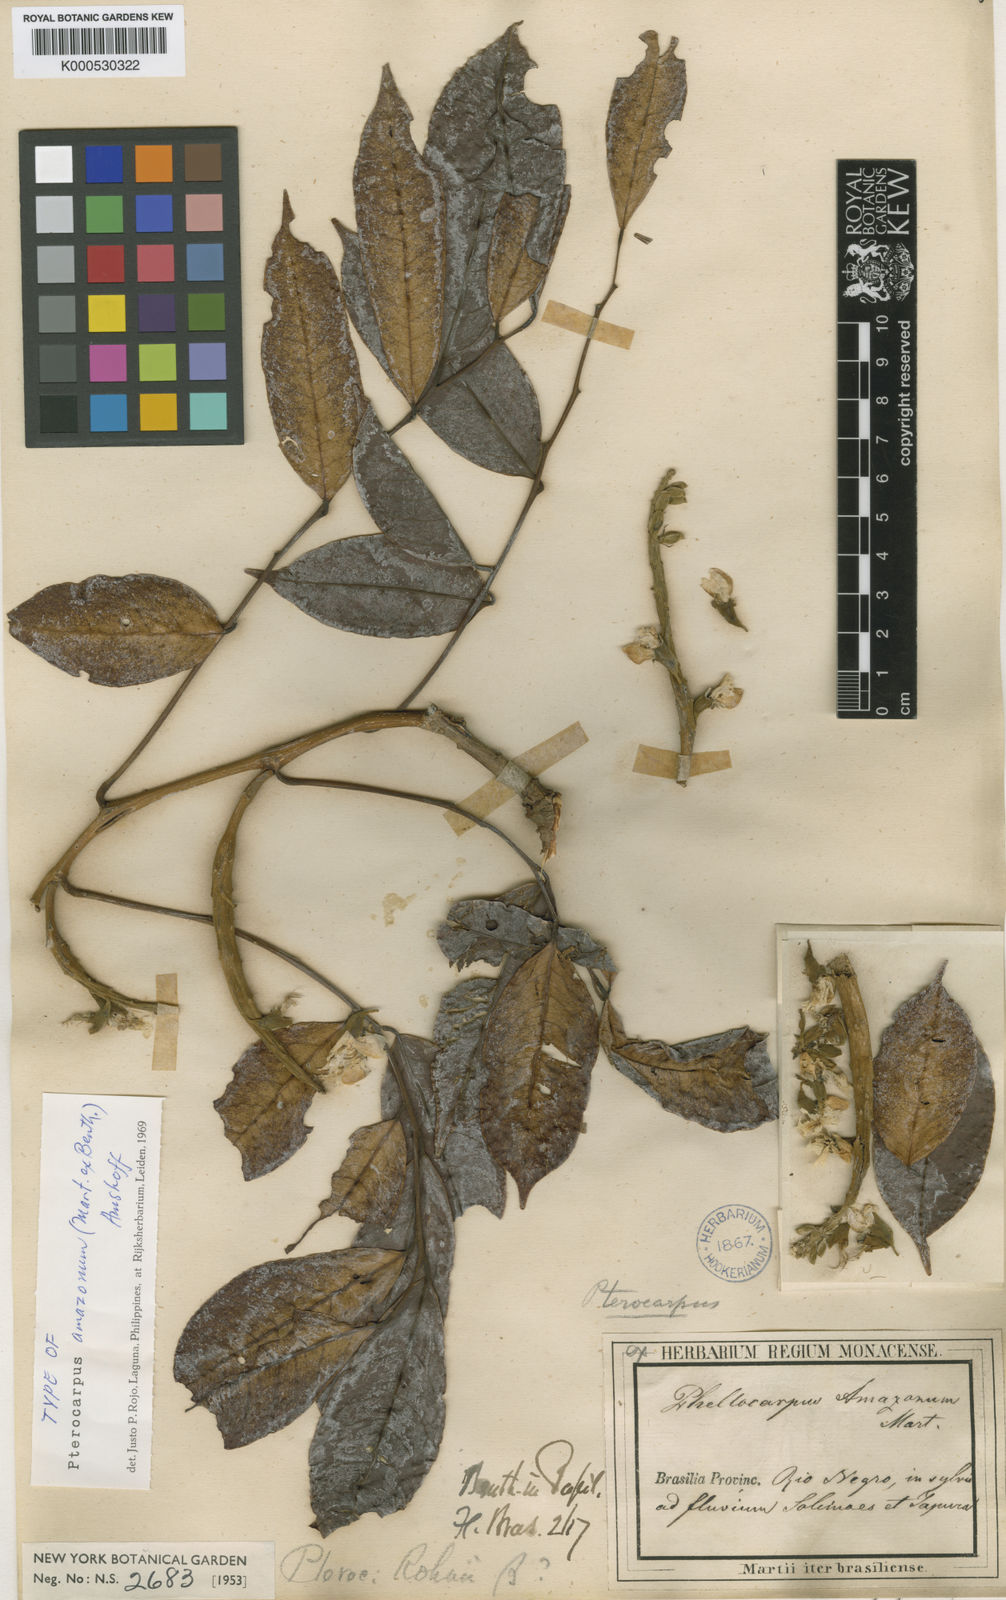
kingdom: Plantae
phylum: Tracheophyta
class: Magnoliopsida
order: Fabales
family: Fabaceae
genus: Pterocarpus
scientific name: Pterocarpus amazonum
